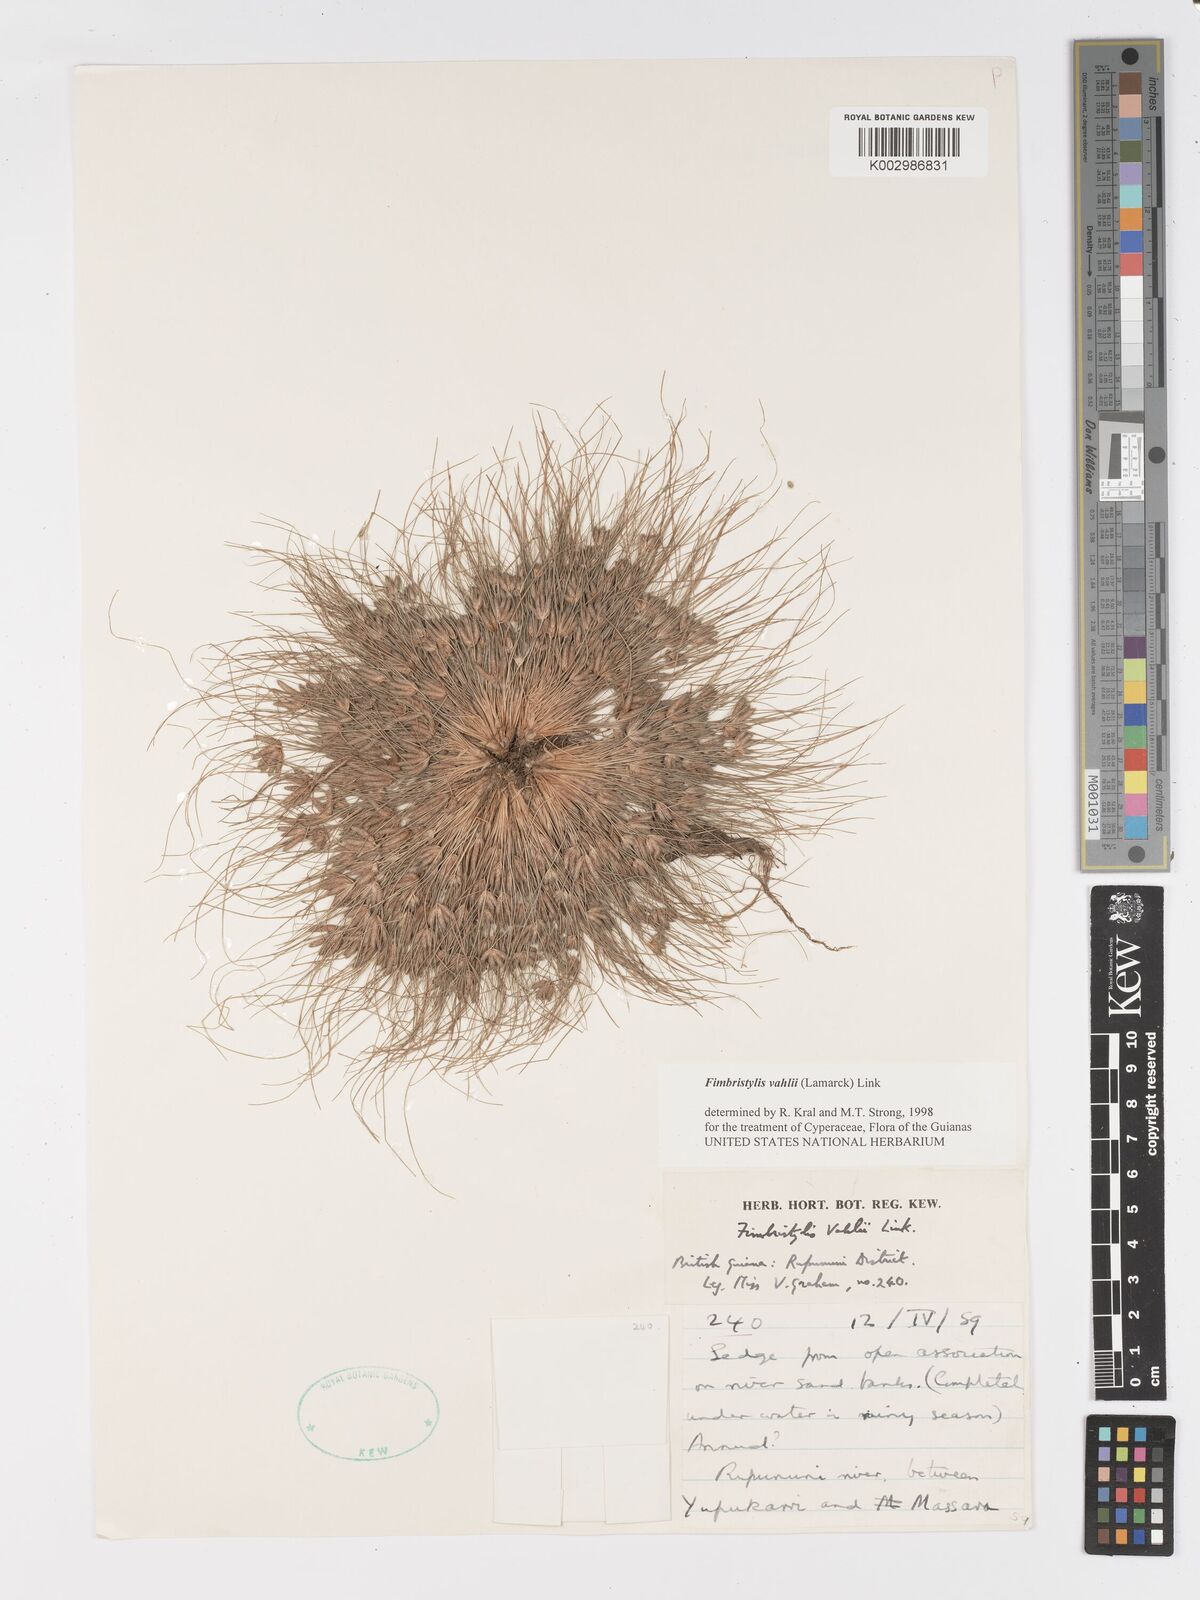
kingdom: Plantae
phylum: Tracheophyta
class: Liliopsida
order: Poales
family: Cyperaceae
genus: Fimbristylis
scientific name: Fimbristylis vahlii
